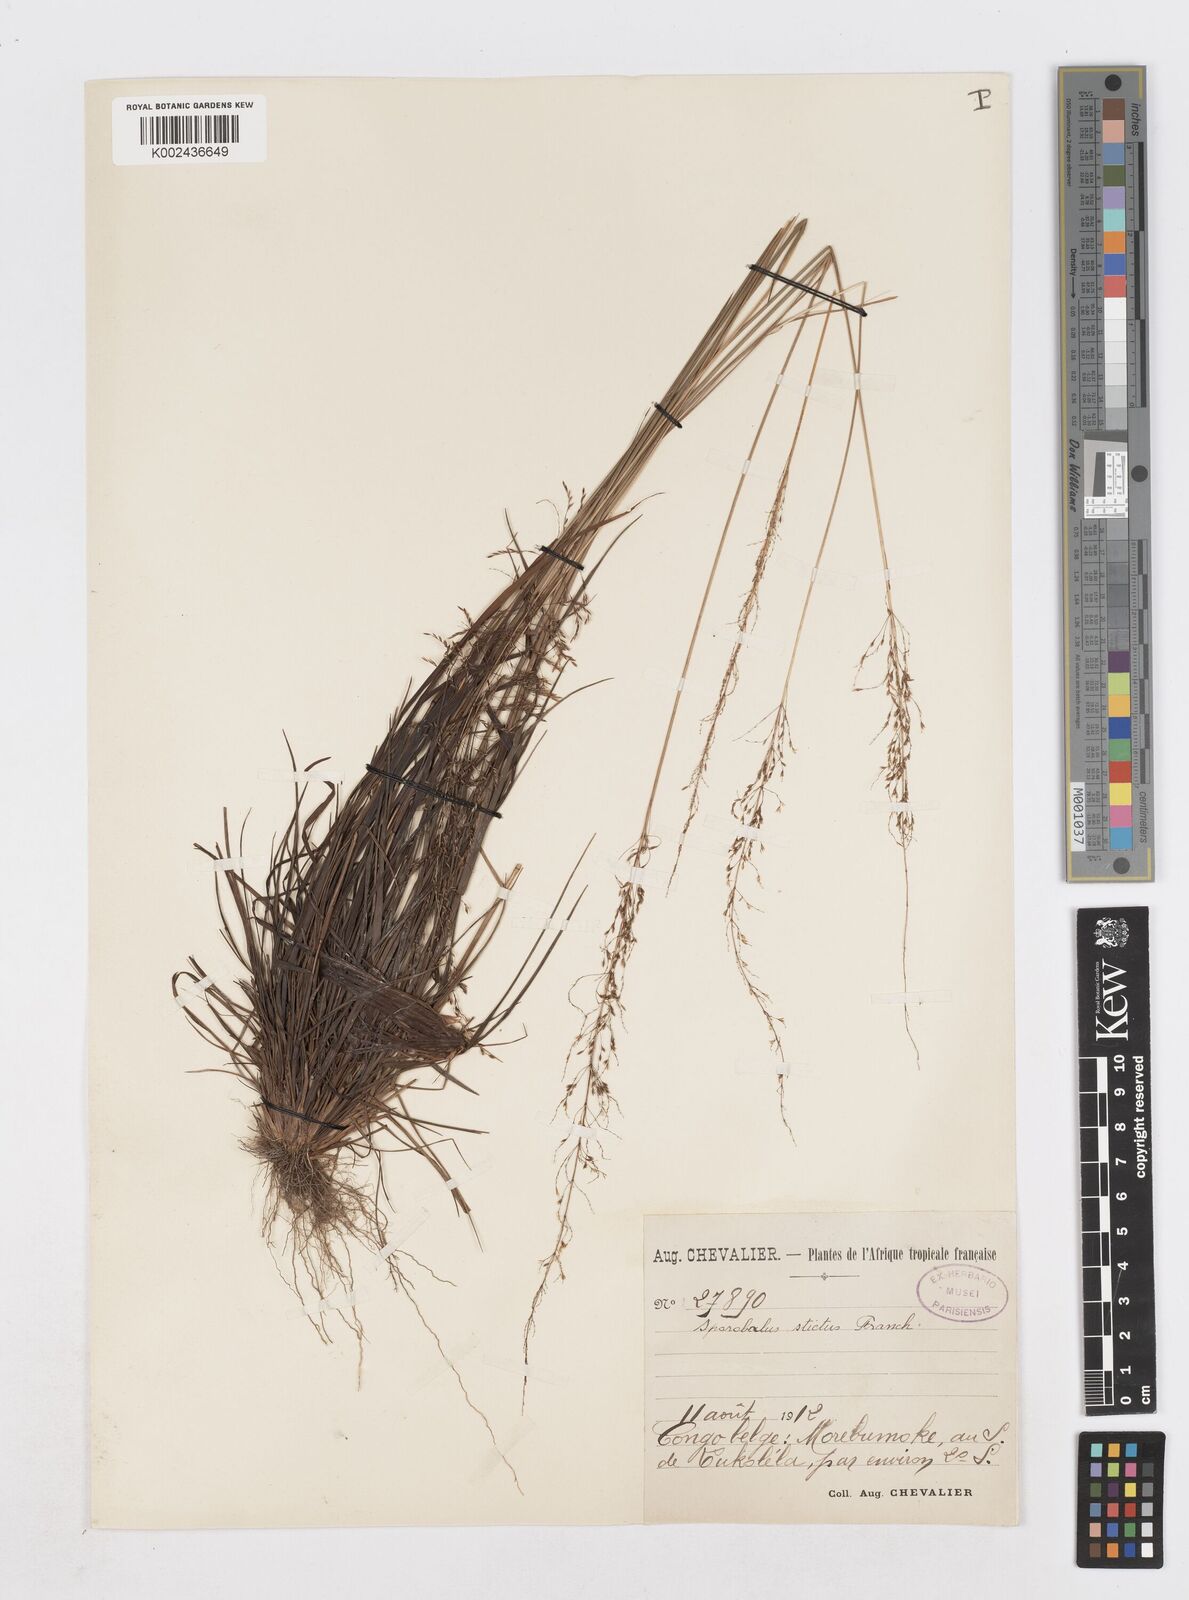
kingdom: Plantae
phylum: Tracheophyta
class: Liliopsida
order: Poales
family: Poaceae
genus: Sporobolus
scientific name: Sporobolus sanguineus
